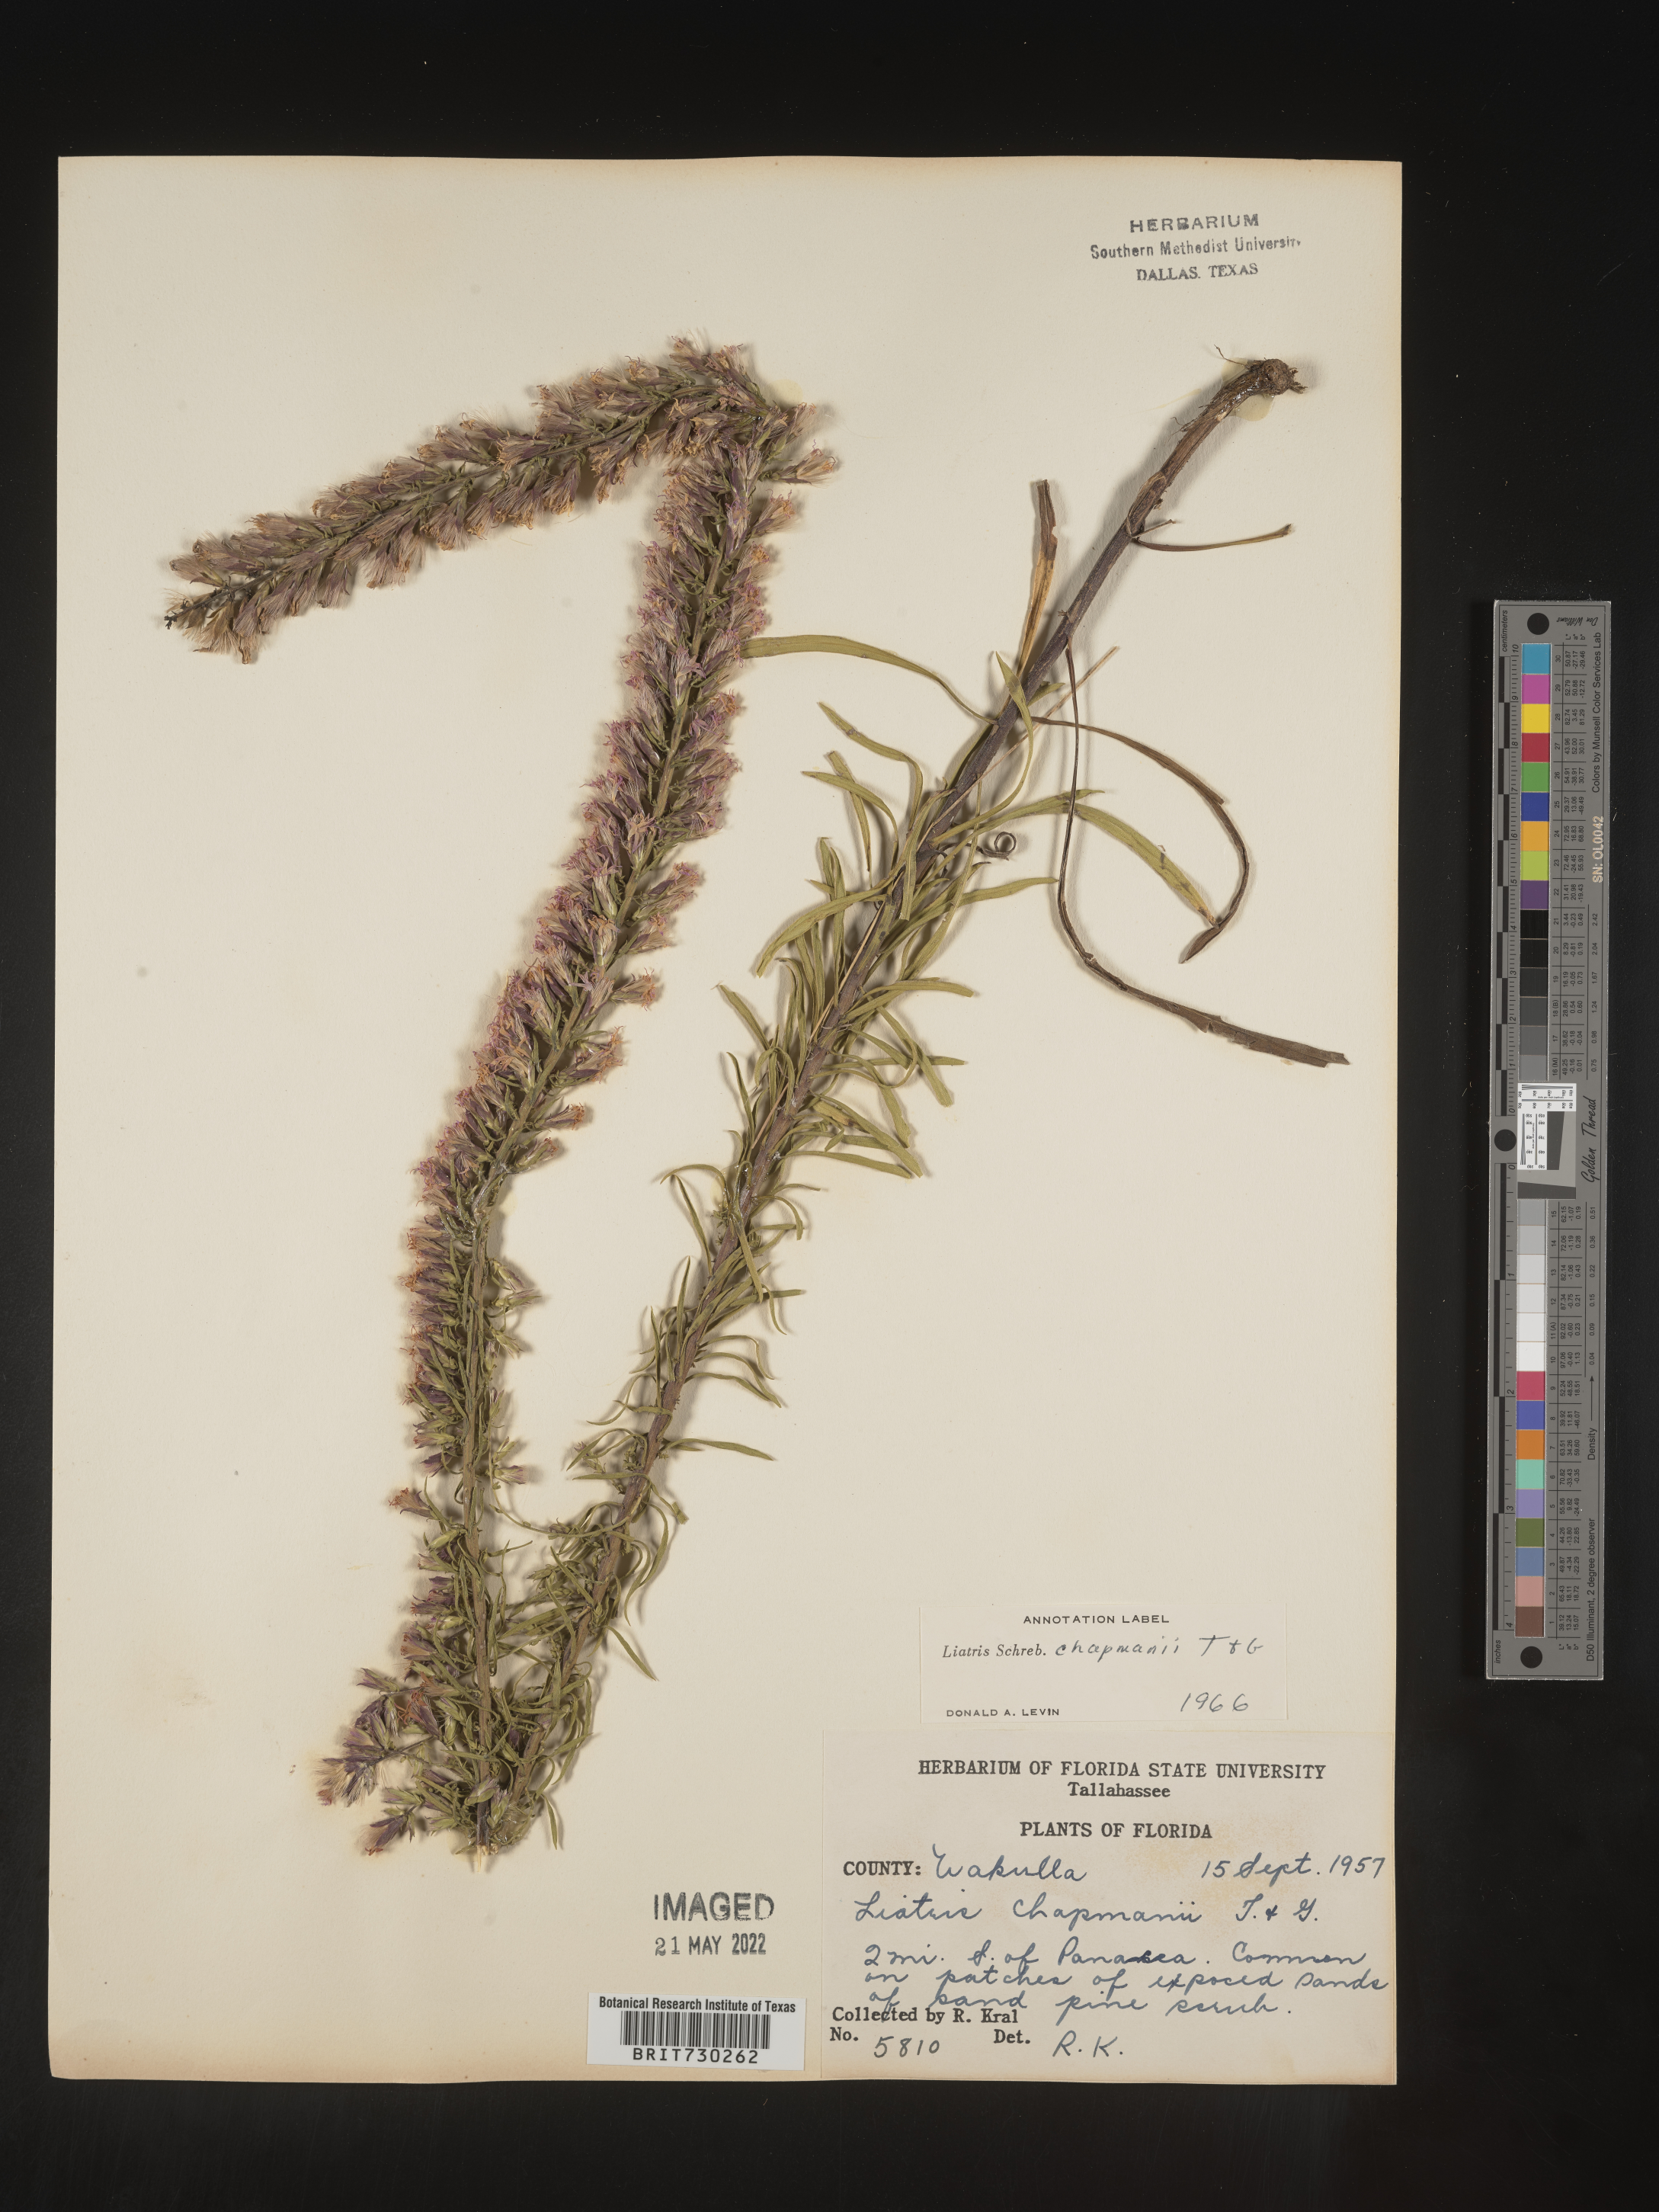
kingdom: Plantae
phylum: Tracheophyta
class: Magnoliopsida
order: Asterales
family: Asteraceae
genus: Liatris
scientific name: Liatris chapmanii
